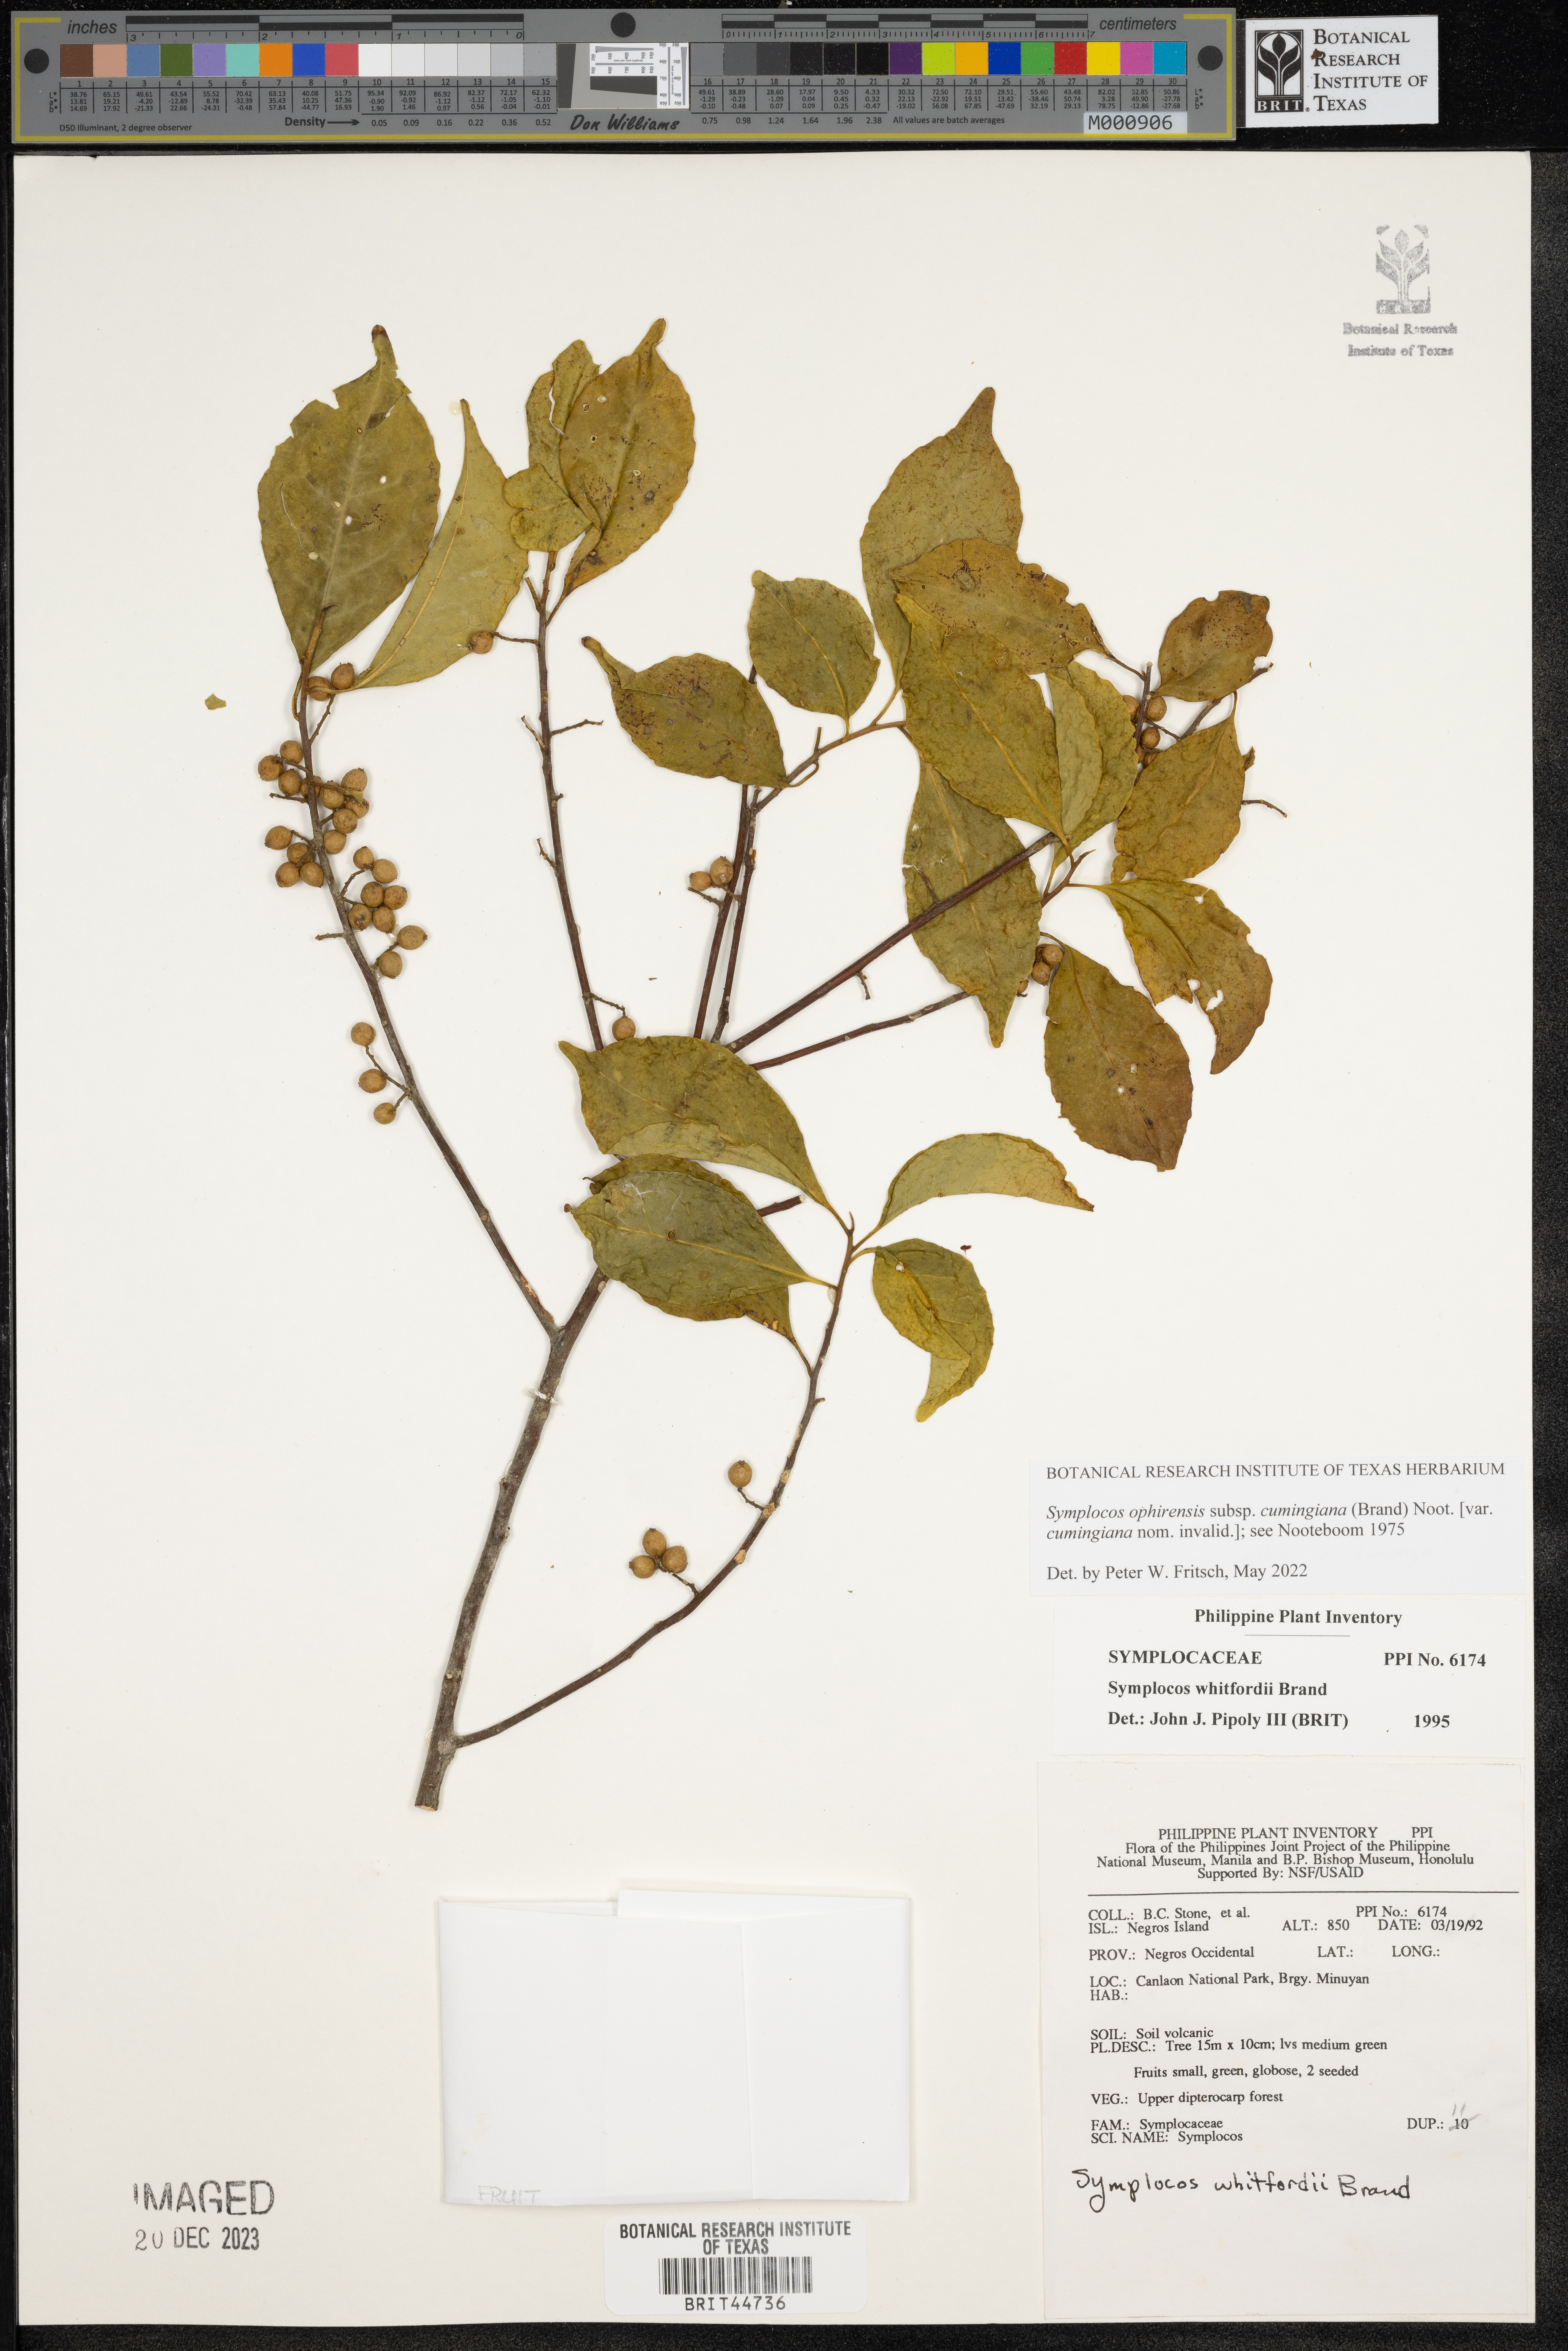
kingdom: Plantae
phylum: Tracheophyta
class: Magnoliopsida
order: Ericales
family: Symplocaceae
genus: Symplocos
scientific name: Symplocos whitfordii
